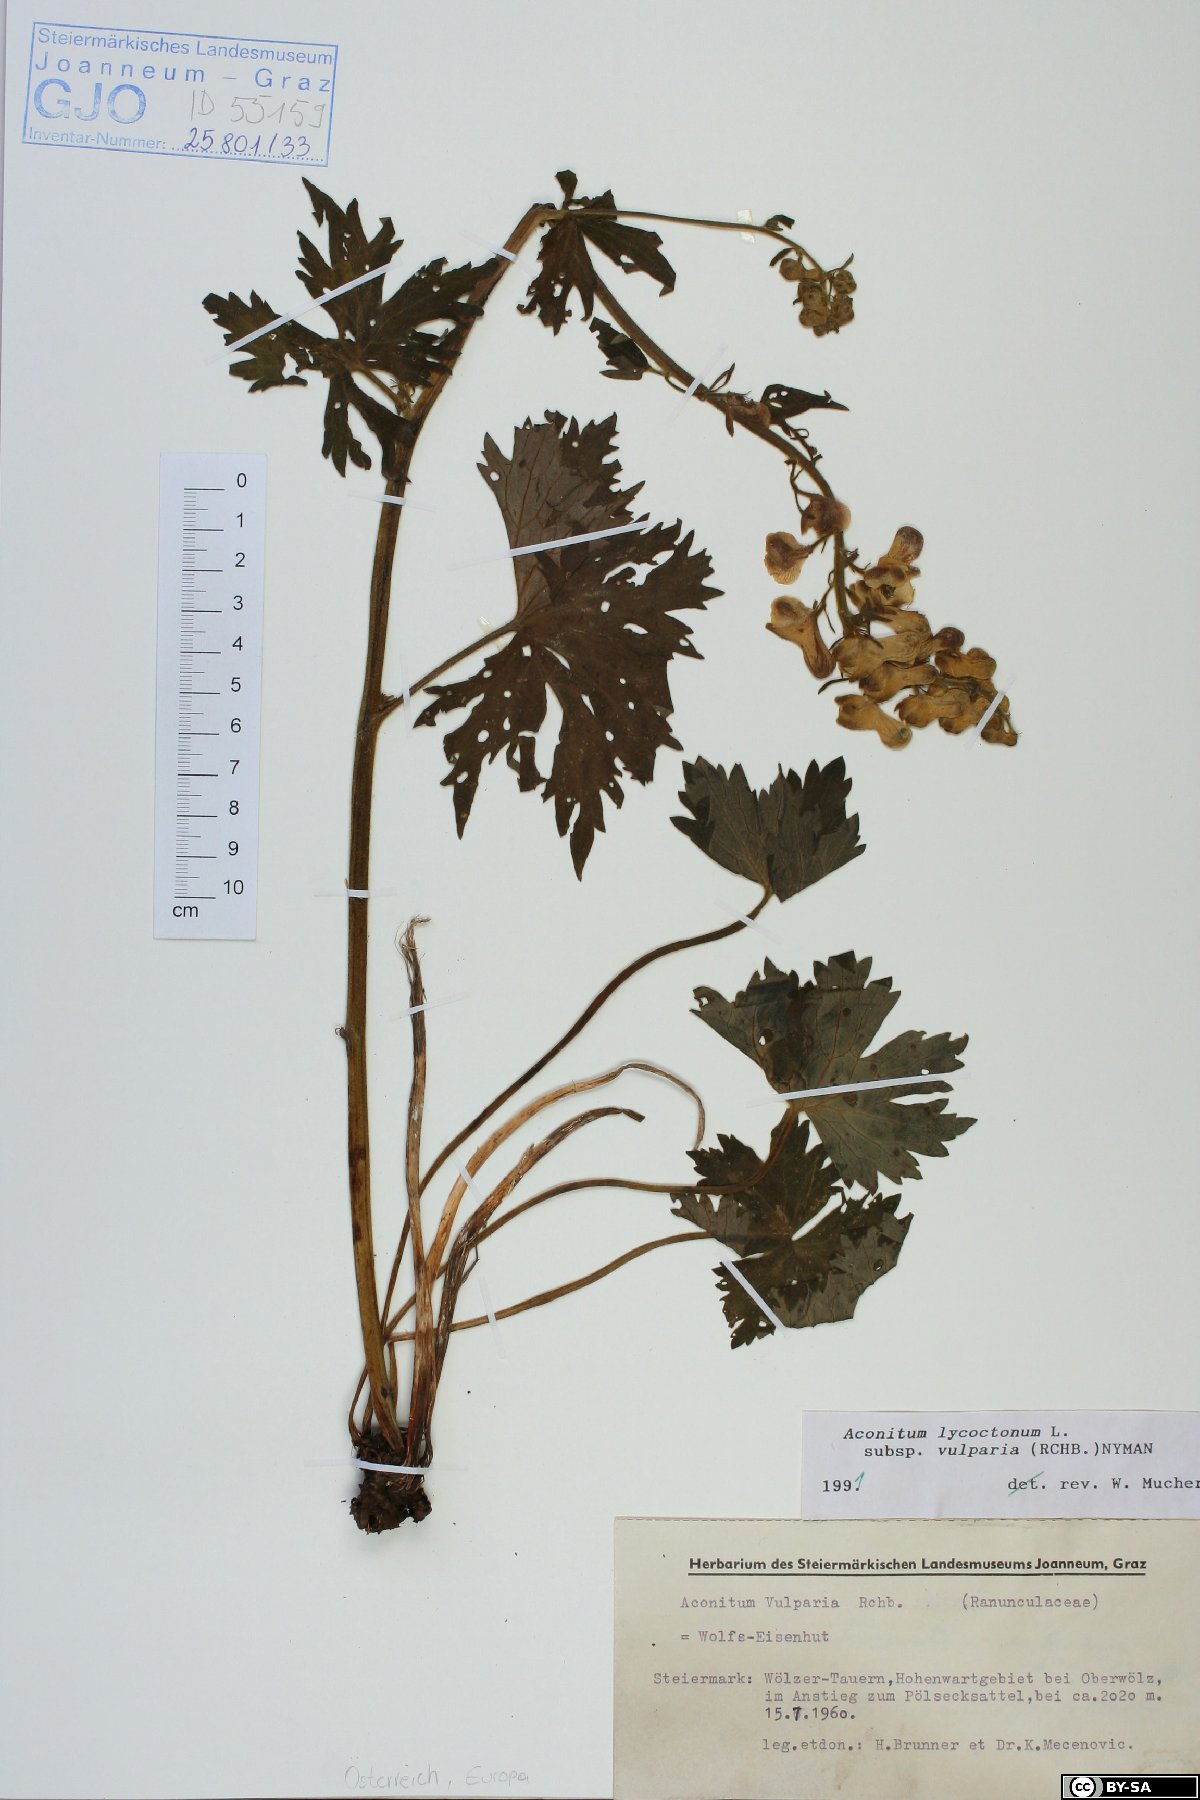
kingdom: Plantae
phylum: Tracheophyta
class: Magnoliopsida
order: Ranunculales
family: Ranunculaceae
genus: Aconitum
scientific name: Aconitum lycoctonum
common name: Wolf's-bane
